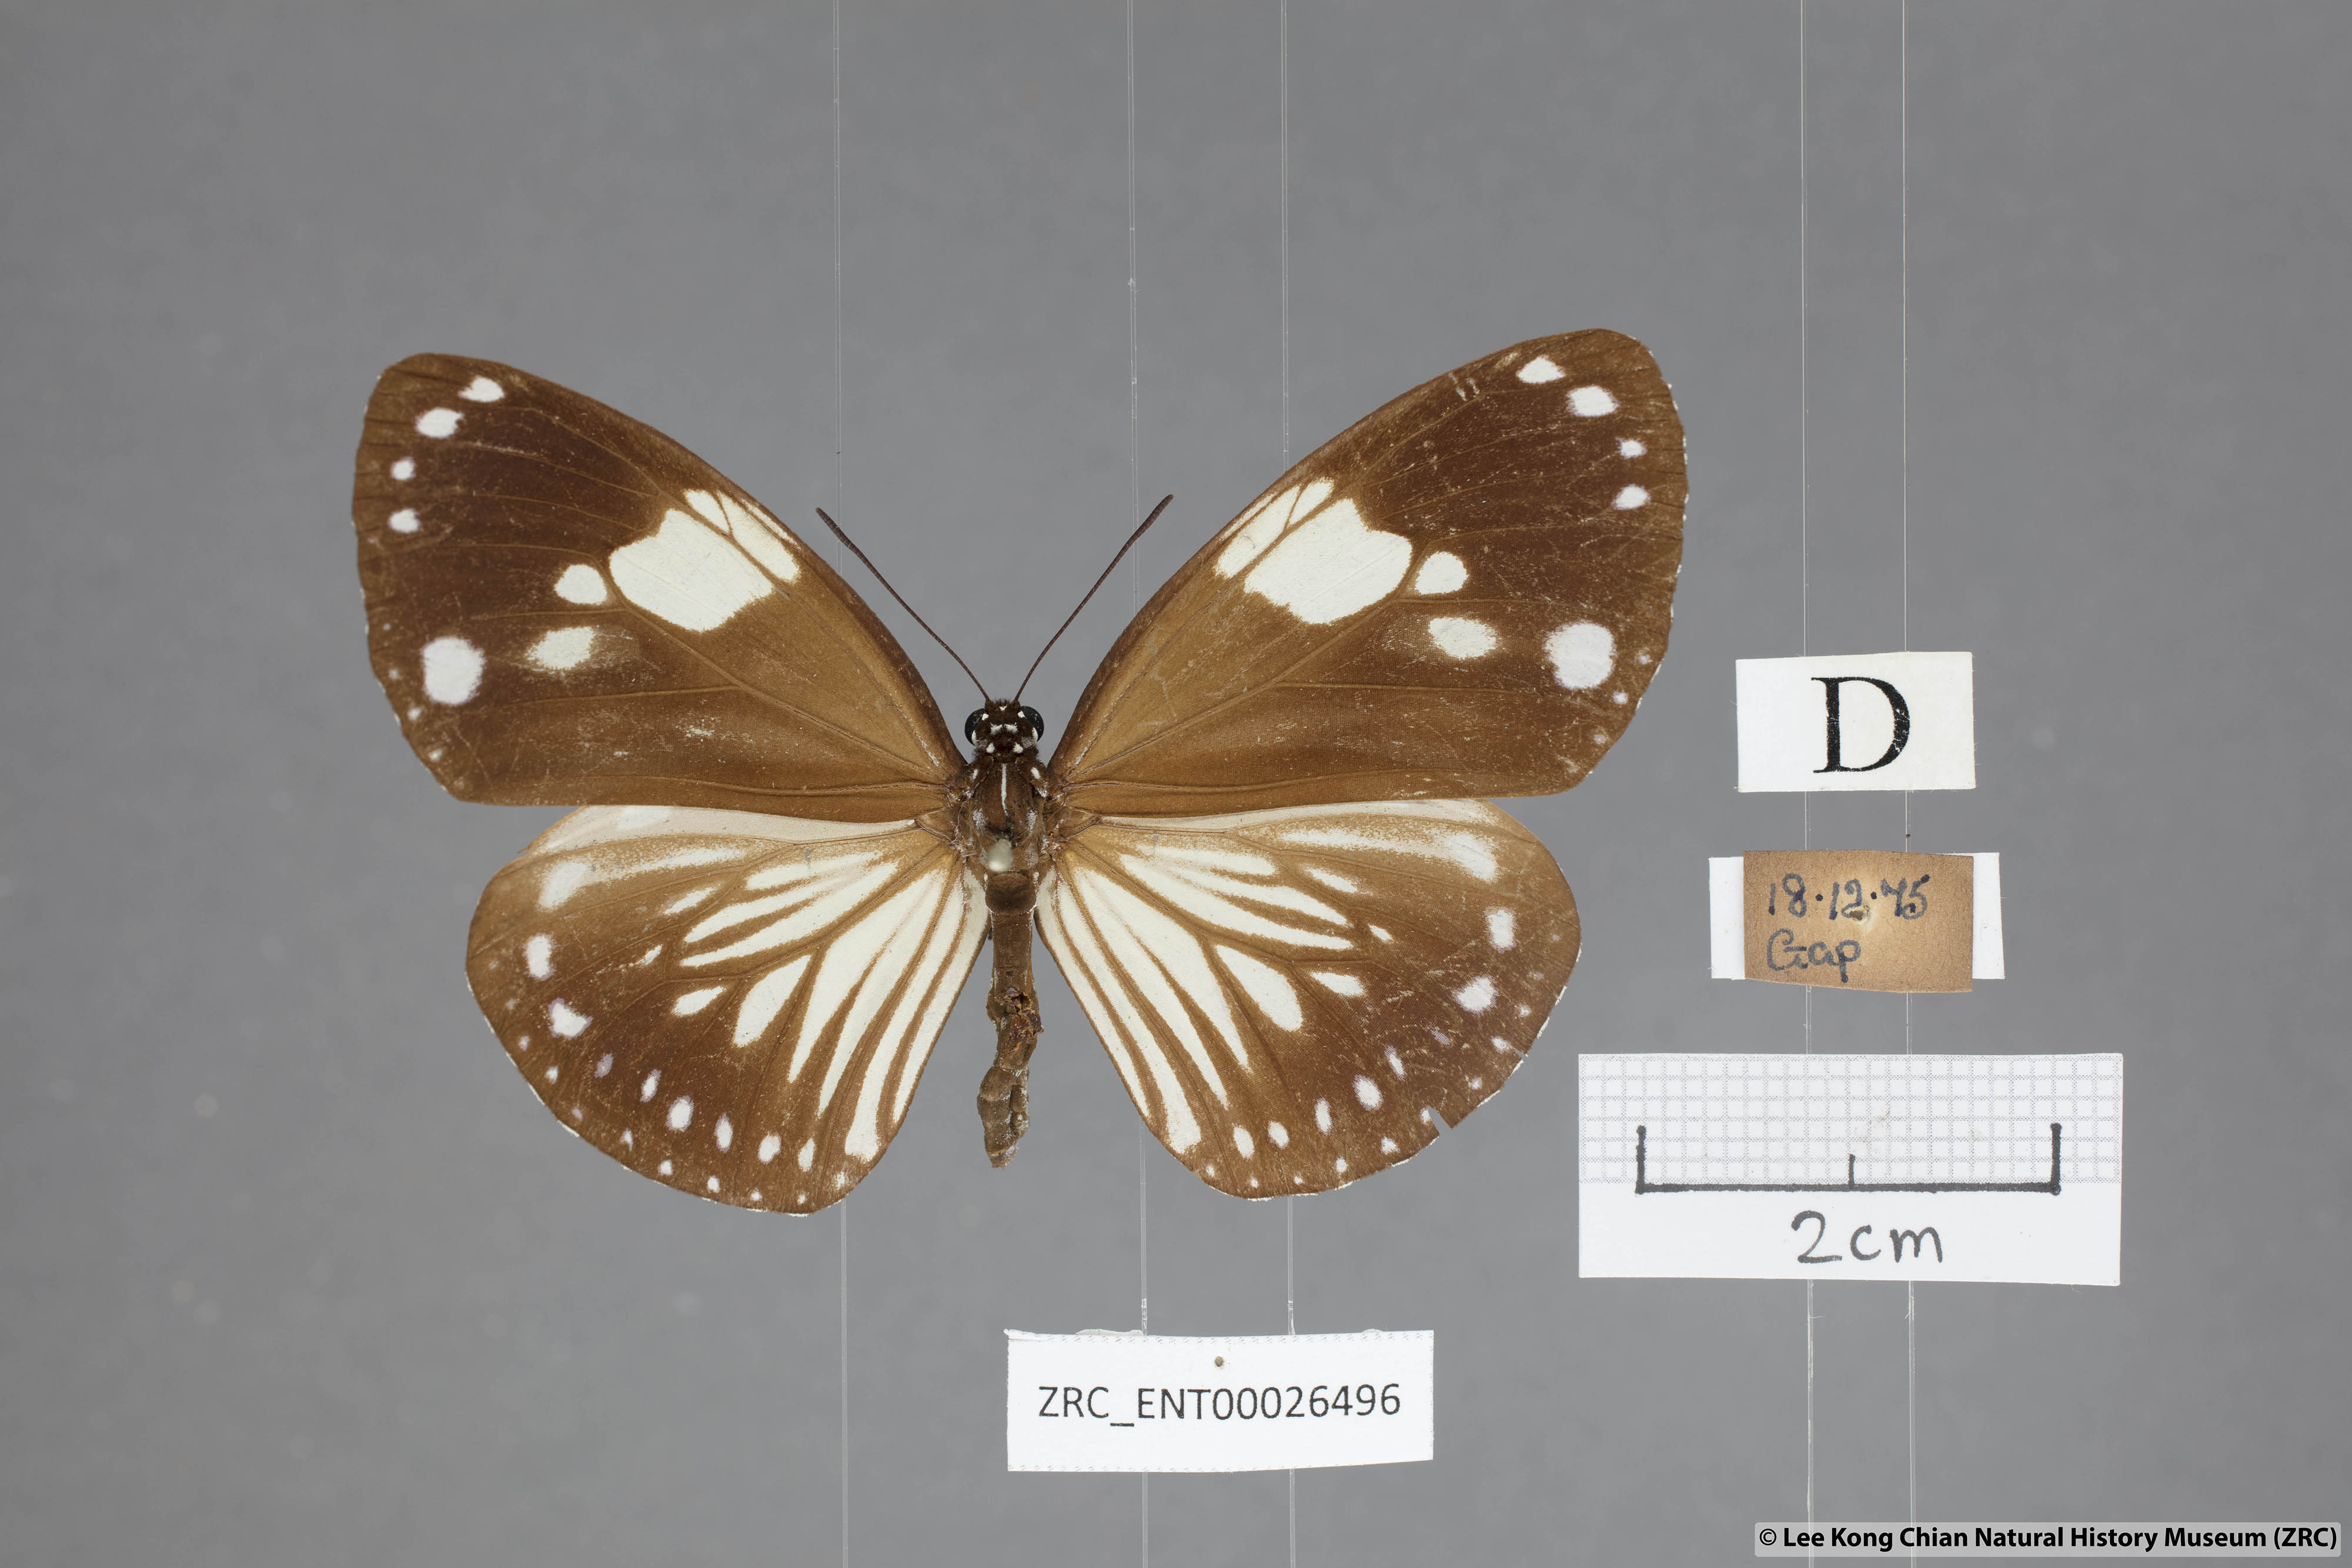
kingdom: Animalia
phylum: Arthropoda
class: Insecta
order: Lepidoptera
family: Nymphalidae
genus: Euploea
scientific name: Euploea radamanthus
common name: Magpie crow butterfly
